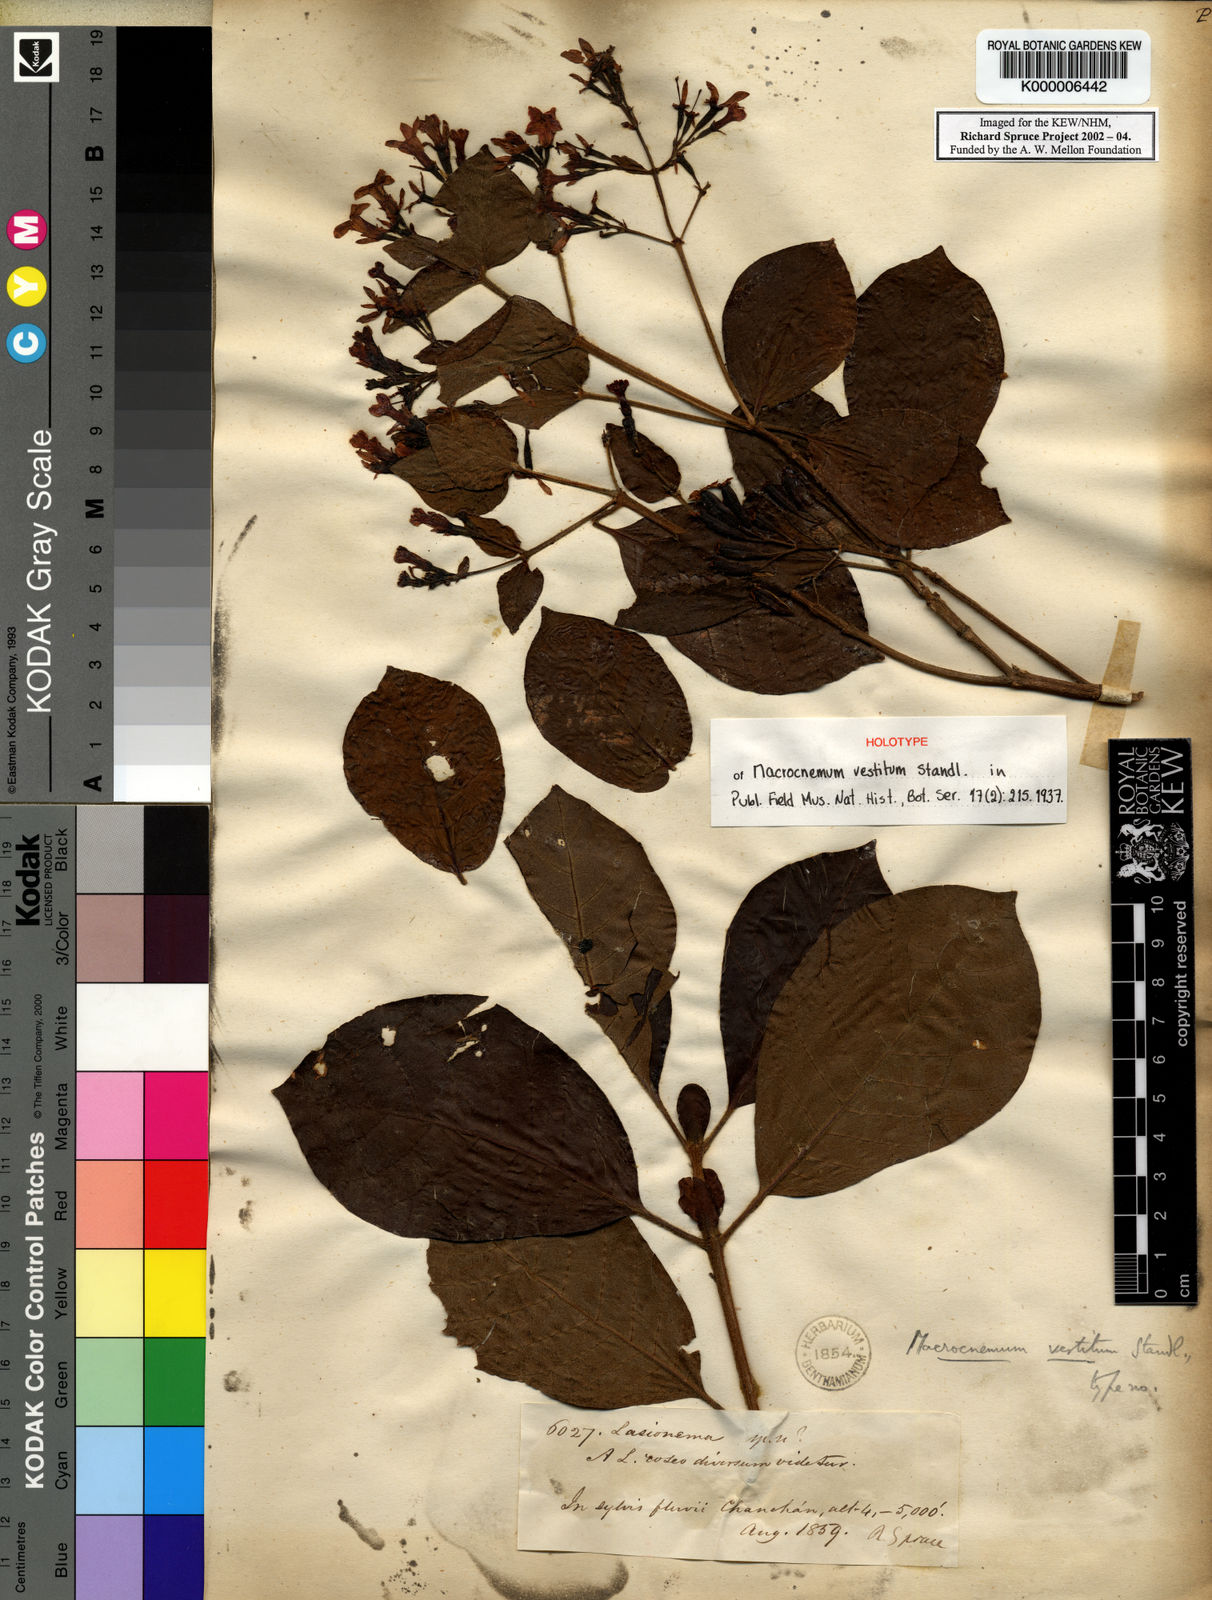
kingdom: Plantae
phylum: Tracheophyta
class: Magnoliopsida
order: Gentianales
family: Rubiaceae
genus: Macrocnemum
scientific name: Macrocnemum humboldtianum
